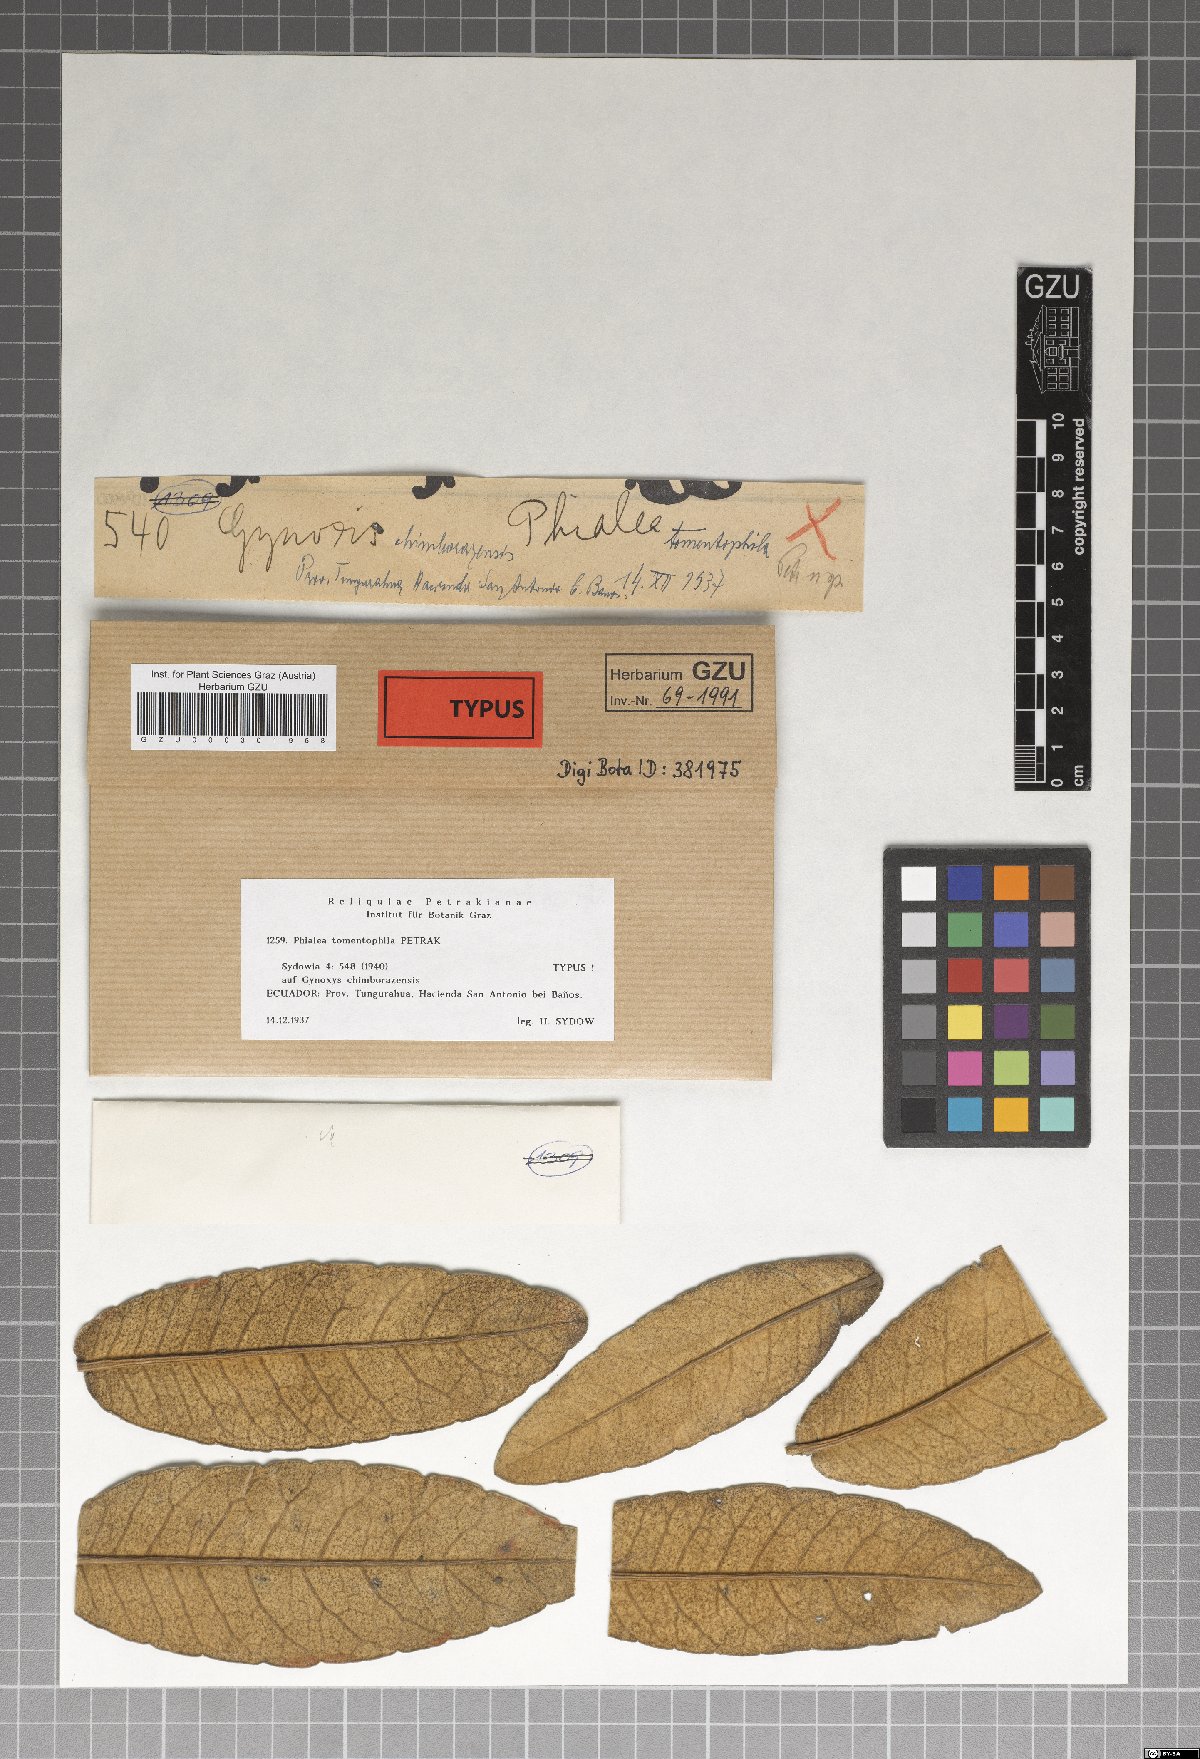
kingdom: Fungi
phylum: Ascomycota
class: Leotiomycetes
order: Helotiales
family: Hyaloscyphaceae
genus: Phialea
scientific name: Phialea tomentophila
